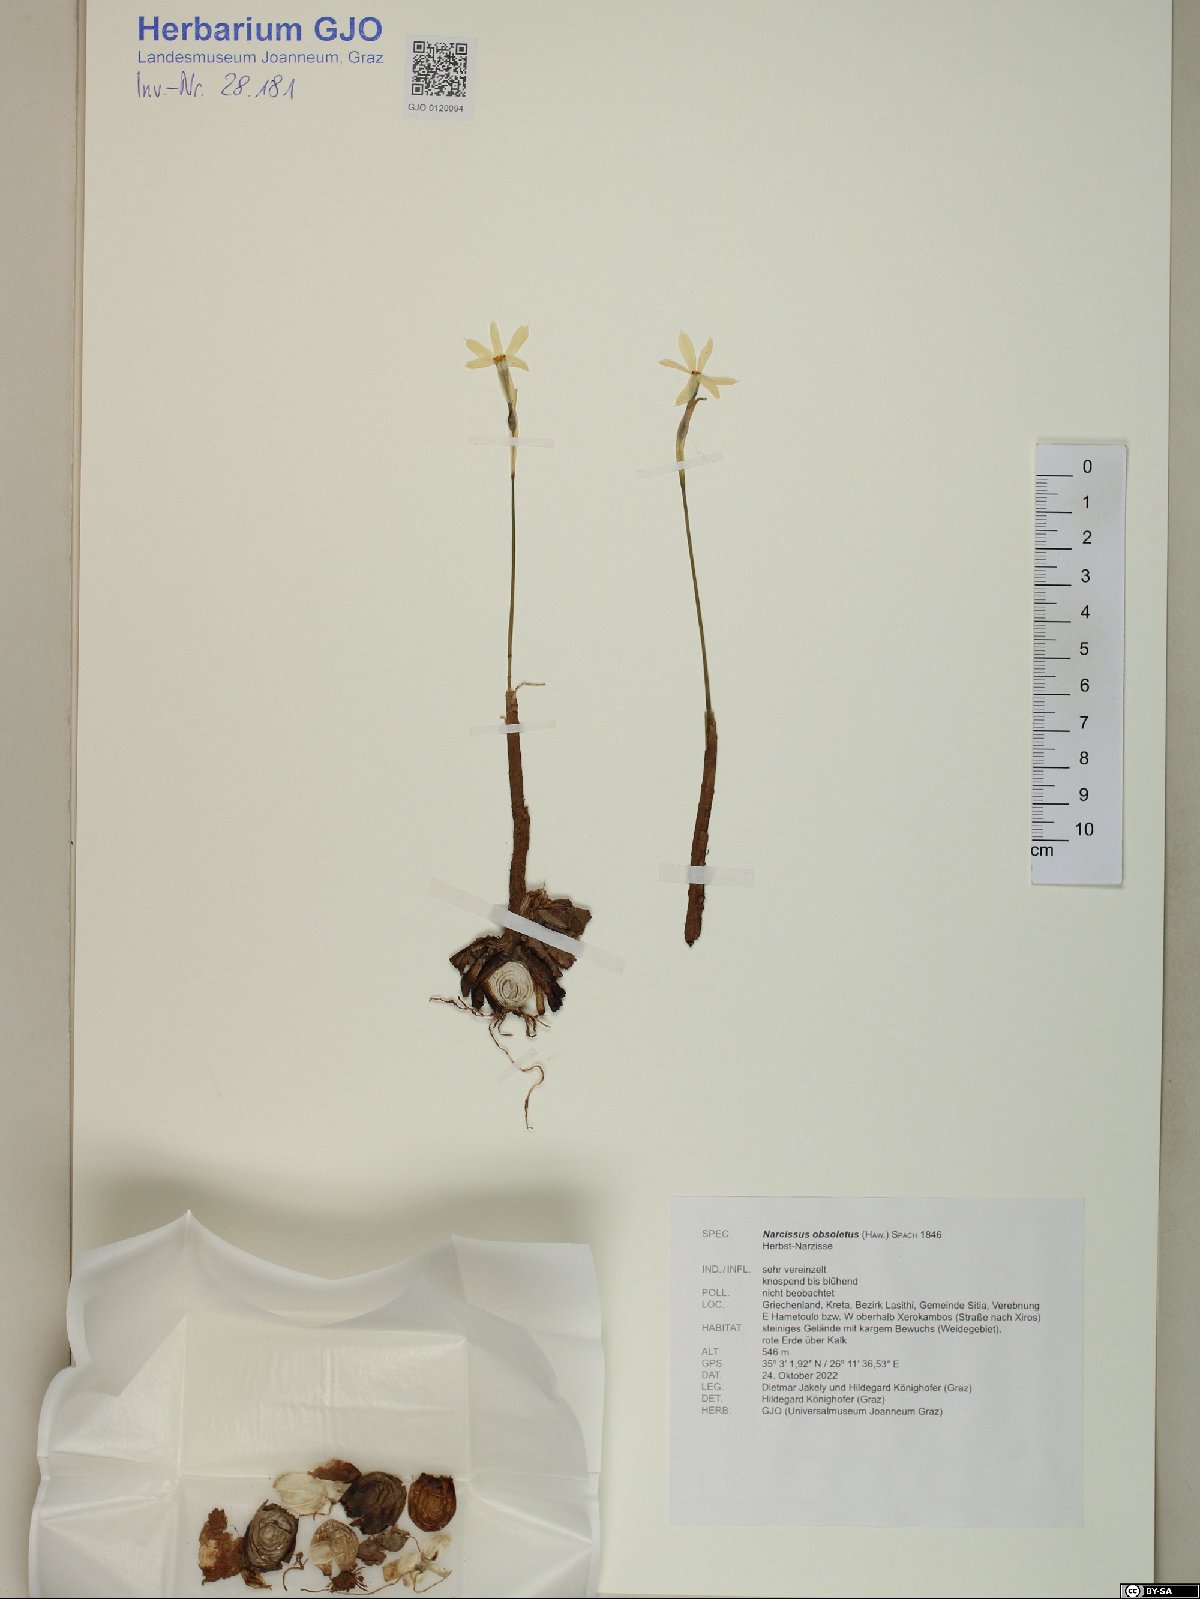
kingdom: Plantae
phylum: Tracheophyta
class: Liliopsida
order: Asparagales
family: Amaryllidaceae
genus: Narcissus
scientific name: Narcissus obsoletus
